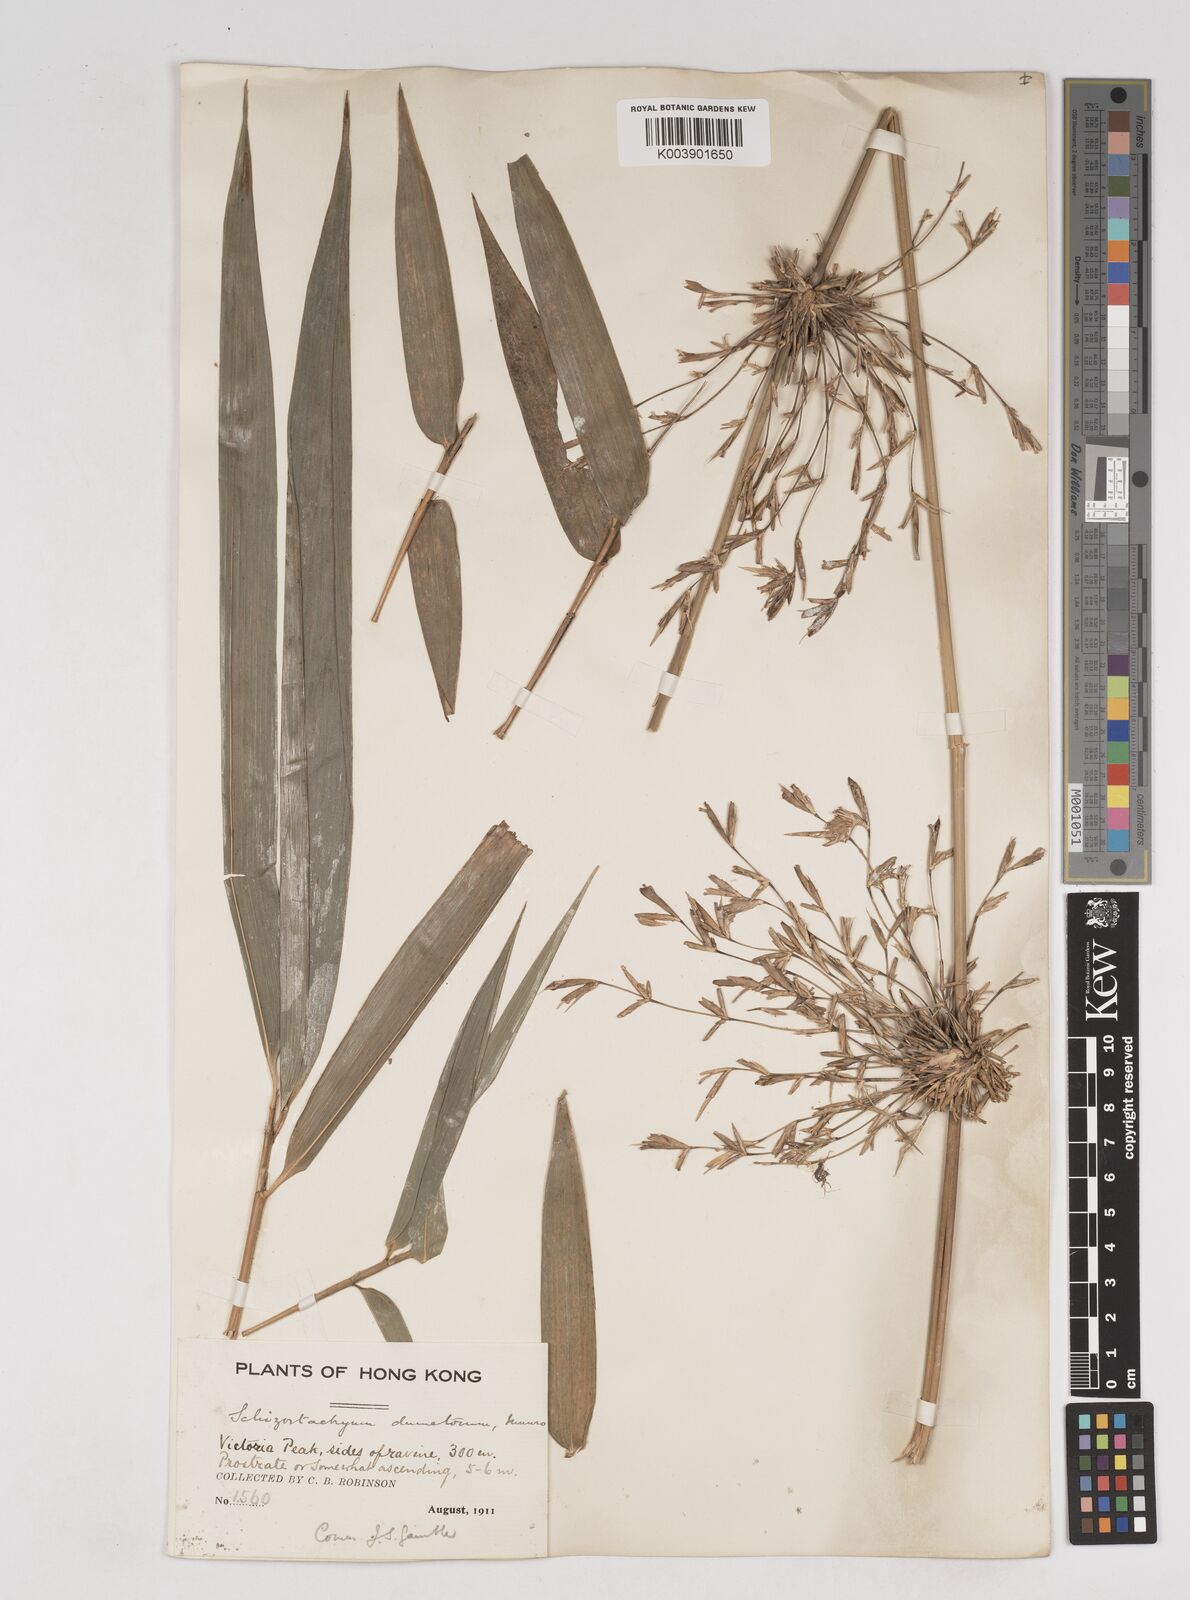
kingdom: Plantae
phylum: Tracheophyta
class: Liliopsida
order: Poales
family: Poaceae
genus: Schizostachyum
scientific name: Schizostachyum dumetorum
